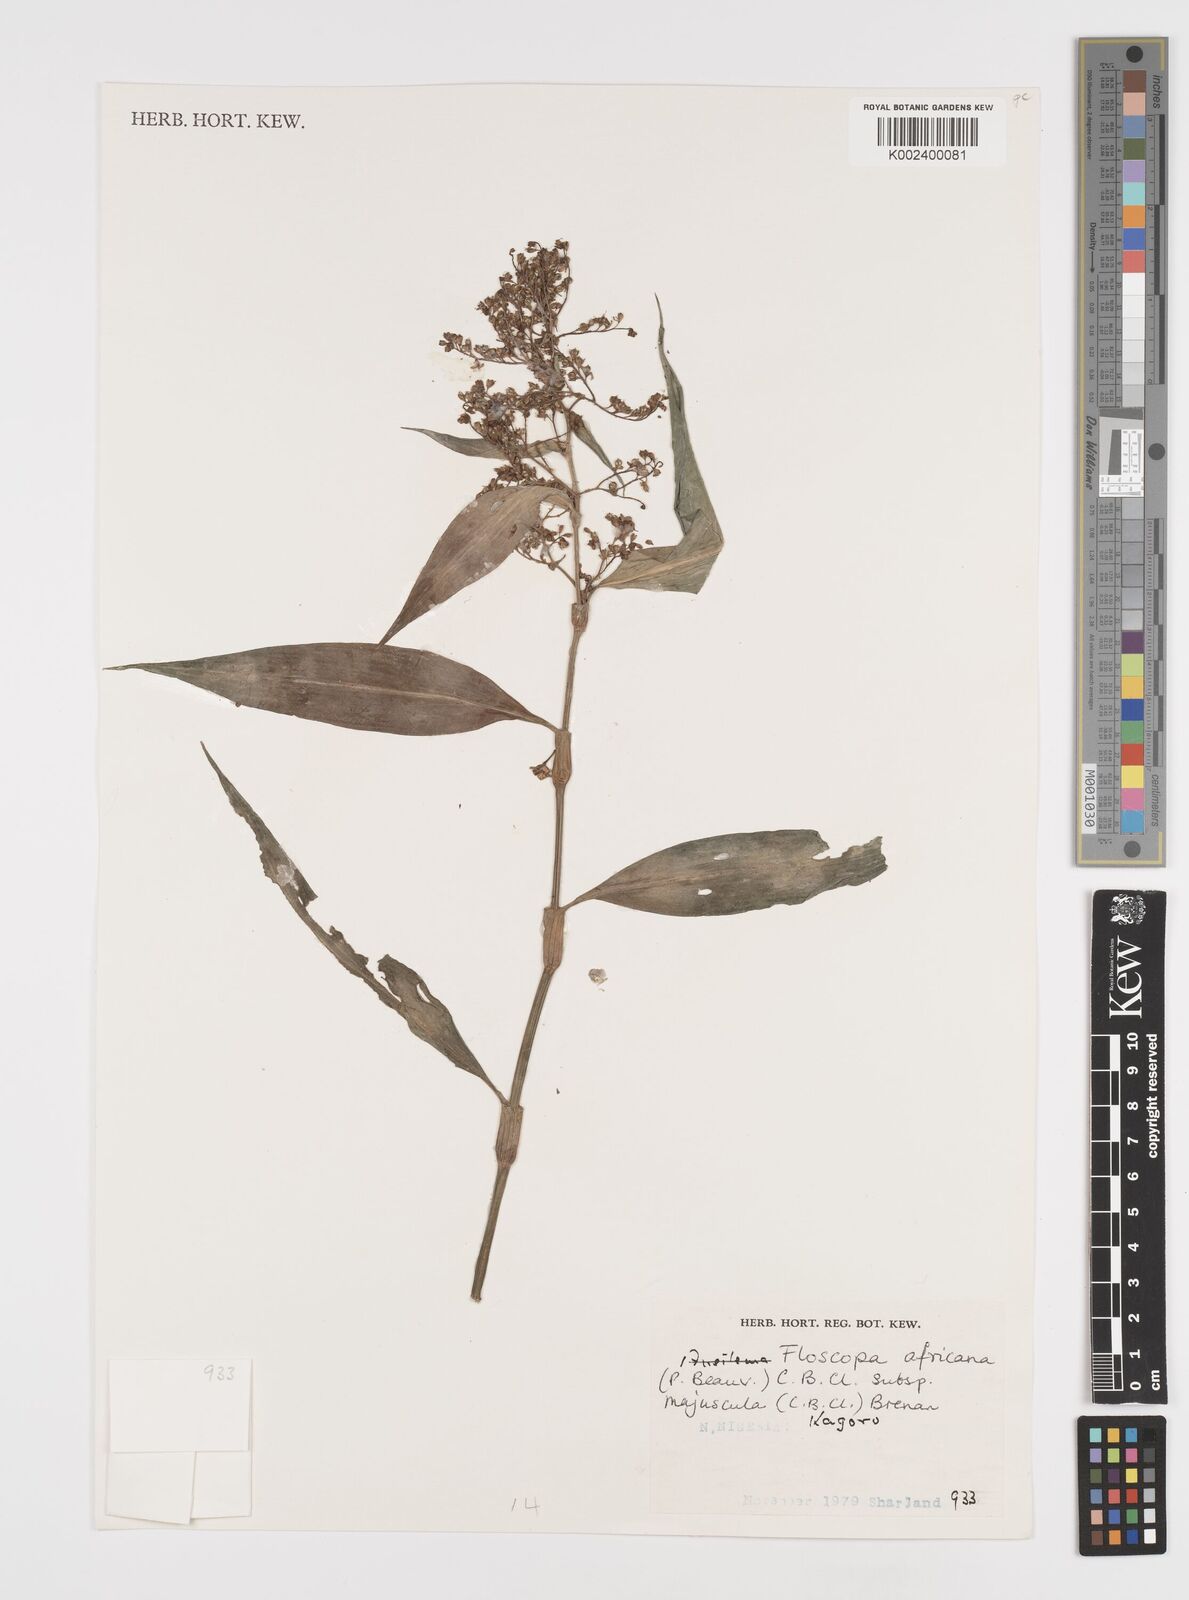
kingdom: Plantae
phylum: Tracheophyta
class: Liliopsida
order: Commelinales
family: Commelinaceae
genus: Floscopa
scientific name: Floscopa africana
